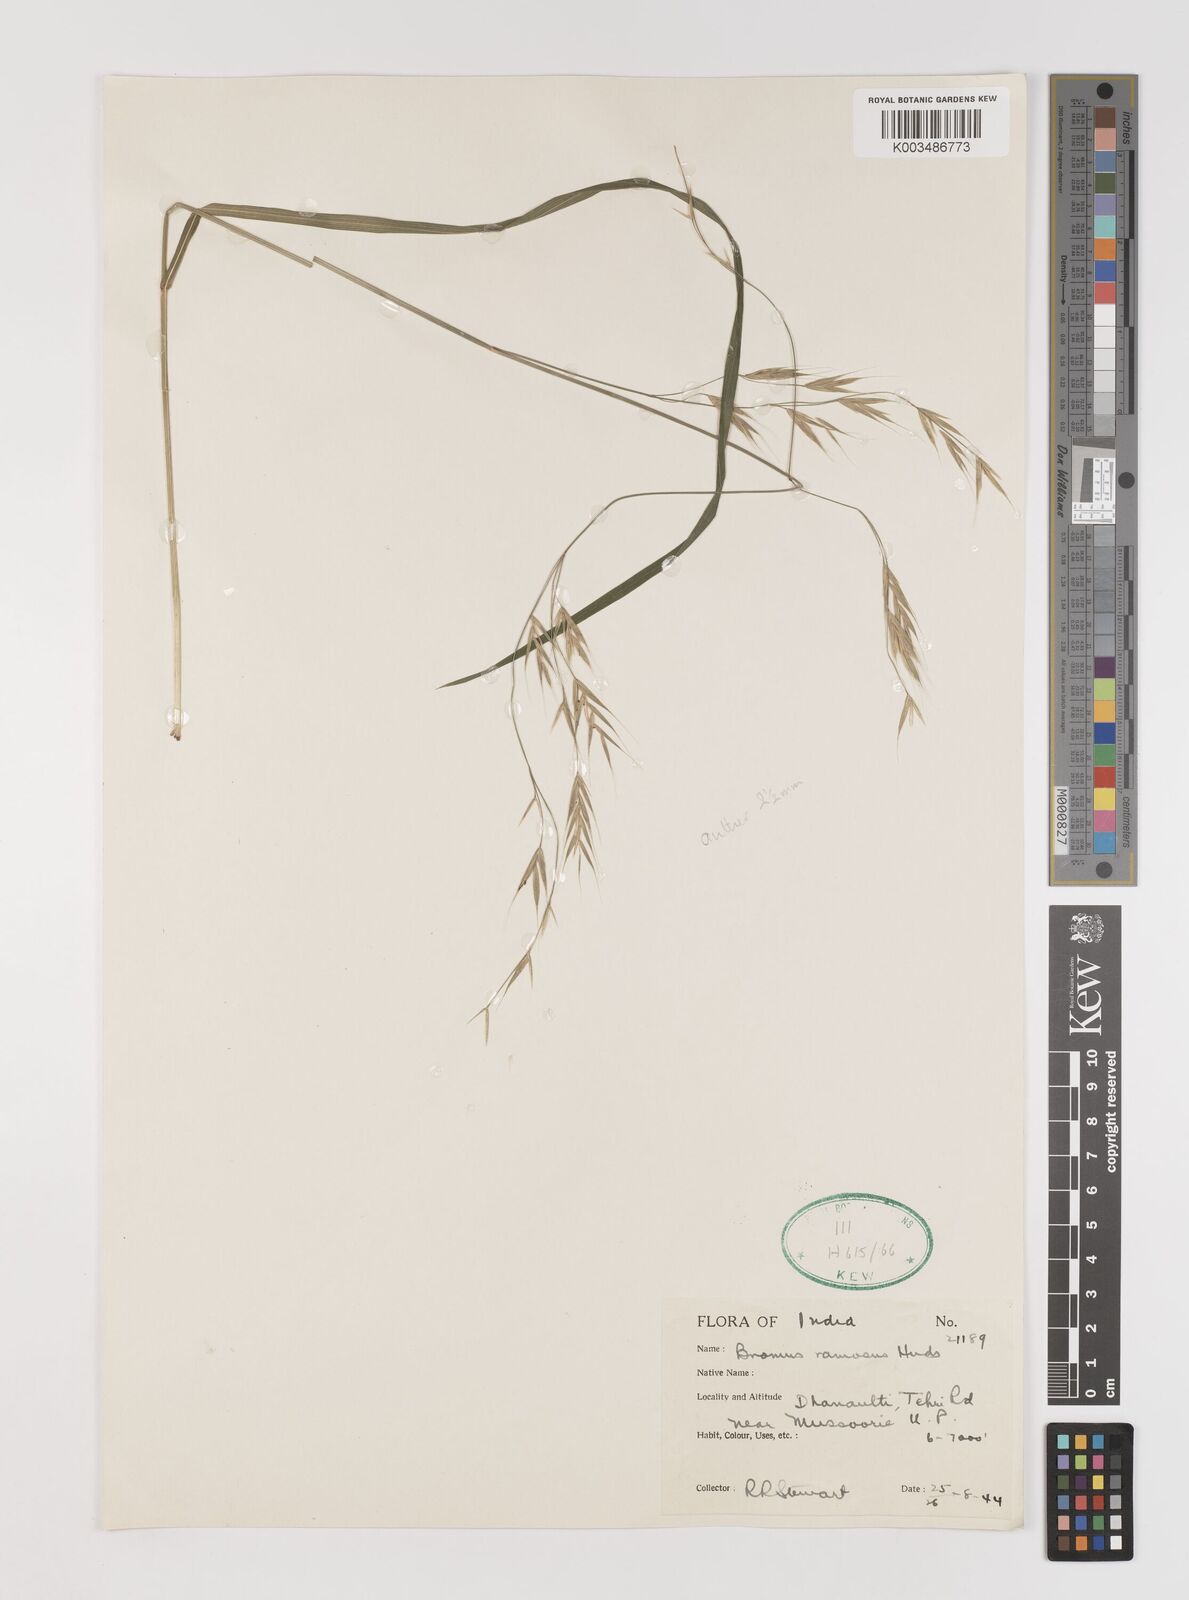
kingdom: Plantae
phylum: Tracheophyta
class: Liliopsida
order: Poales
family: Poaceae
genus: Brachypodium
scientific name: Brachypodium retusum
